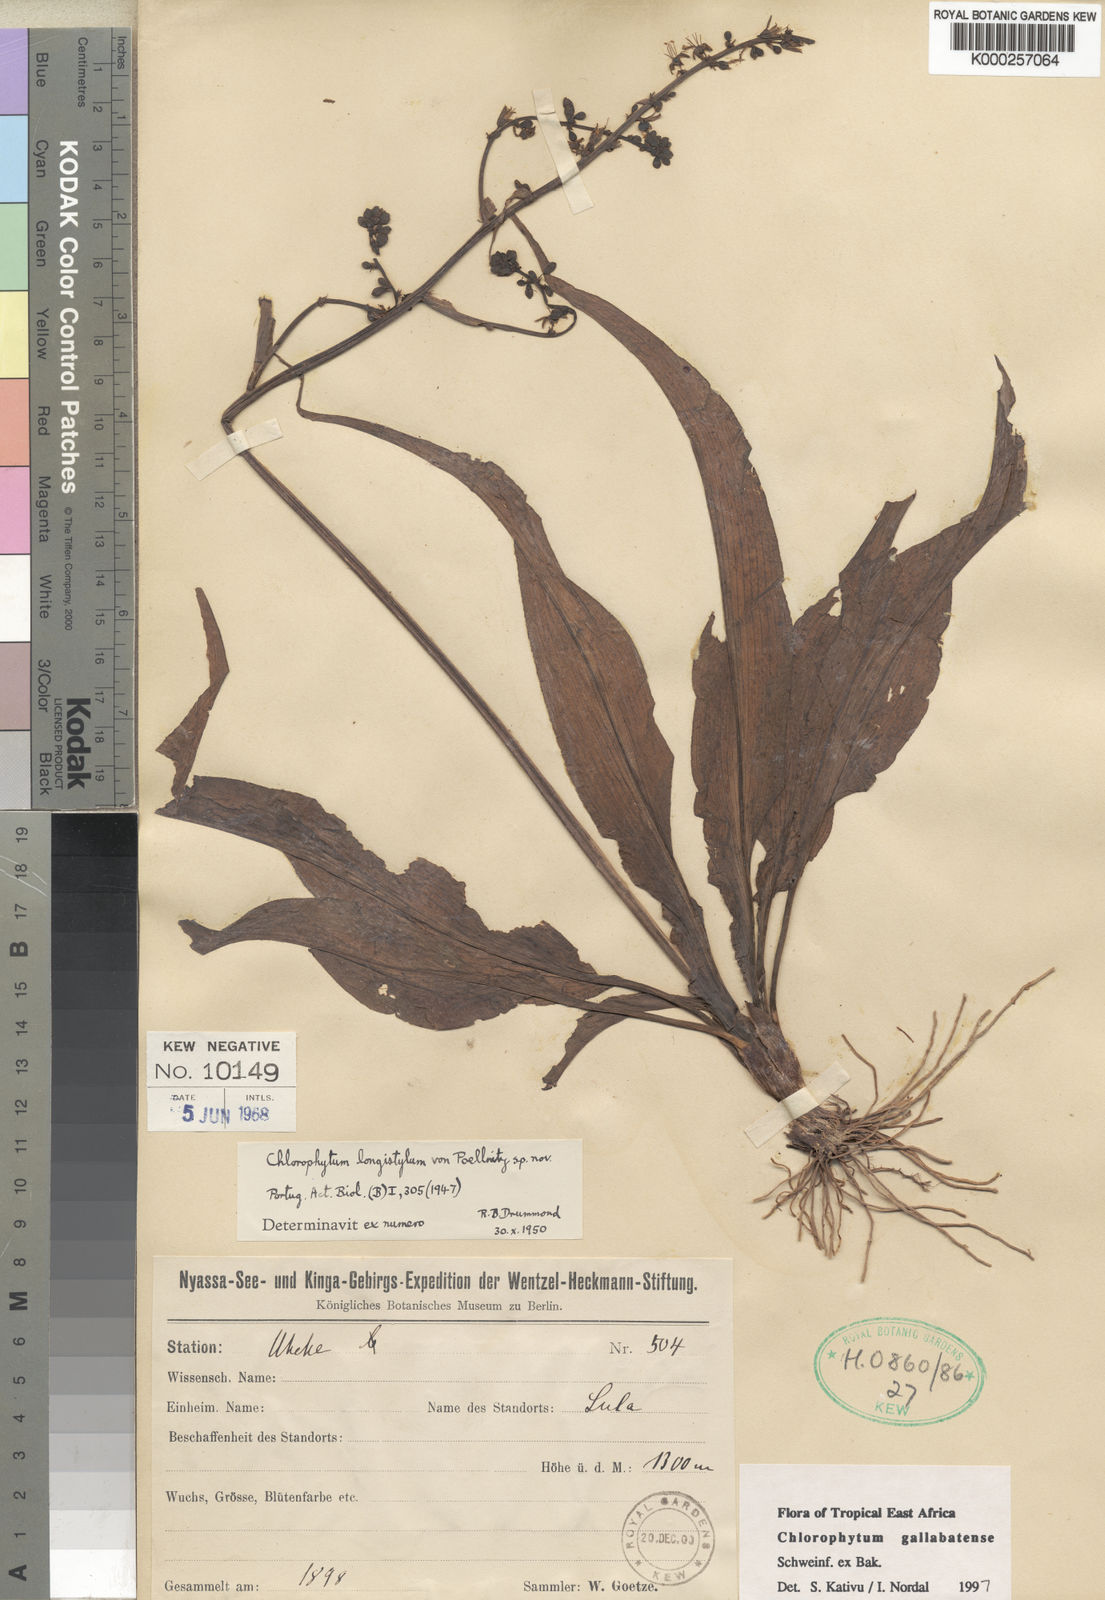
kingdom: Plantae
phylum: Tracheophyta
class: Liliopsida
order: Asparagales
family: Asparagaceae
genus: Chlorophytum
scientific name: Chlorophytum gallabatense
